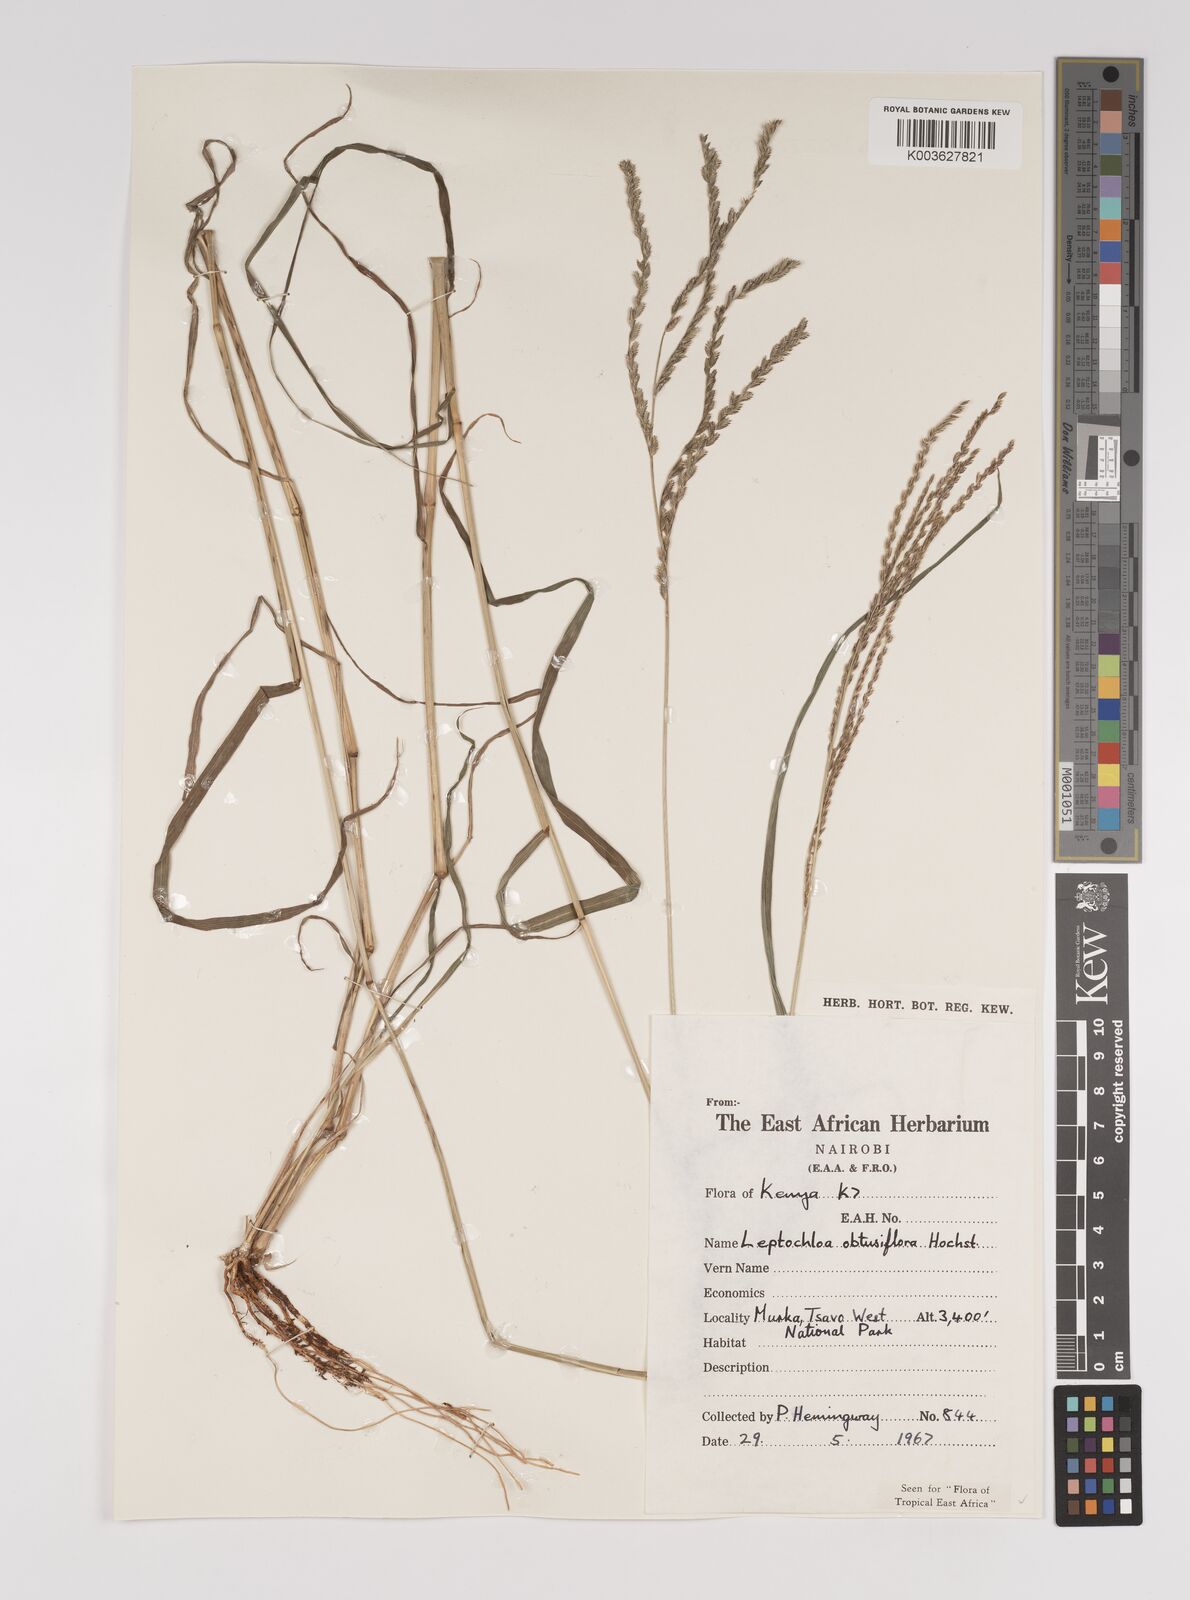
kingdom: Plantae
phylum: Tracheophyta
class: Liliopsida
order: Poales
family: Poaceae
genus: Disakisperma
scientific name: Disakisperma obtusiflorum
